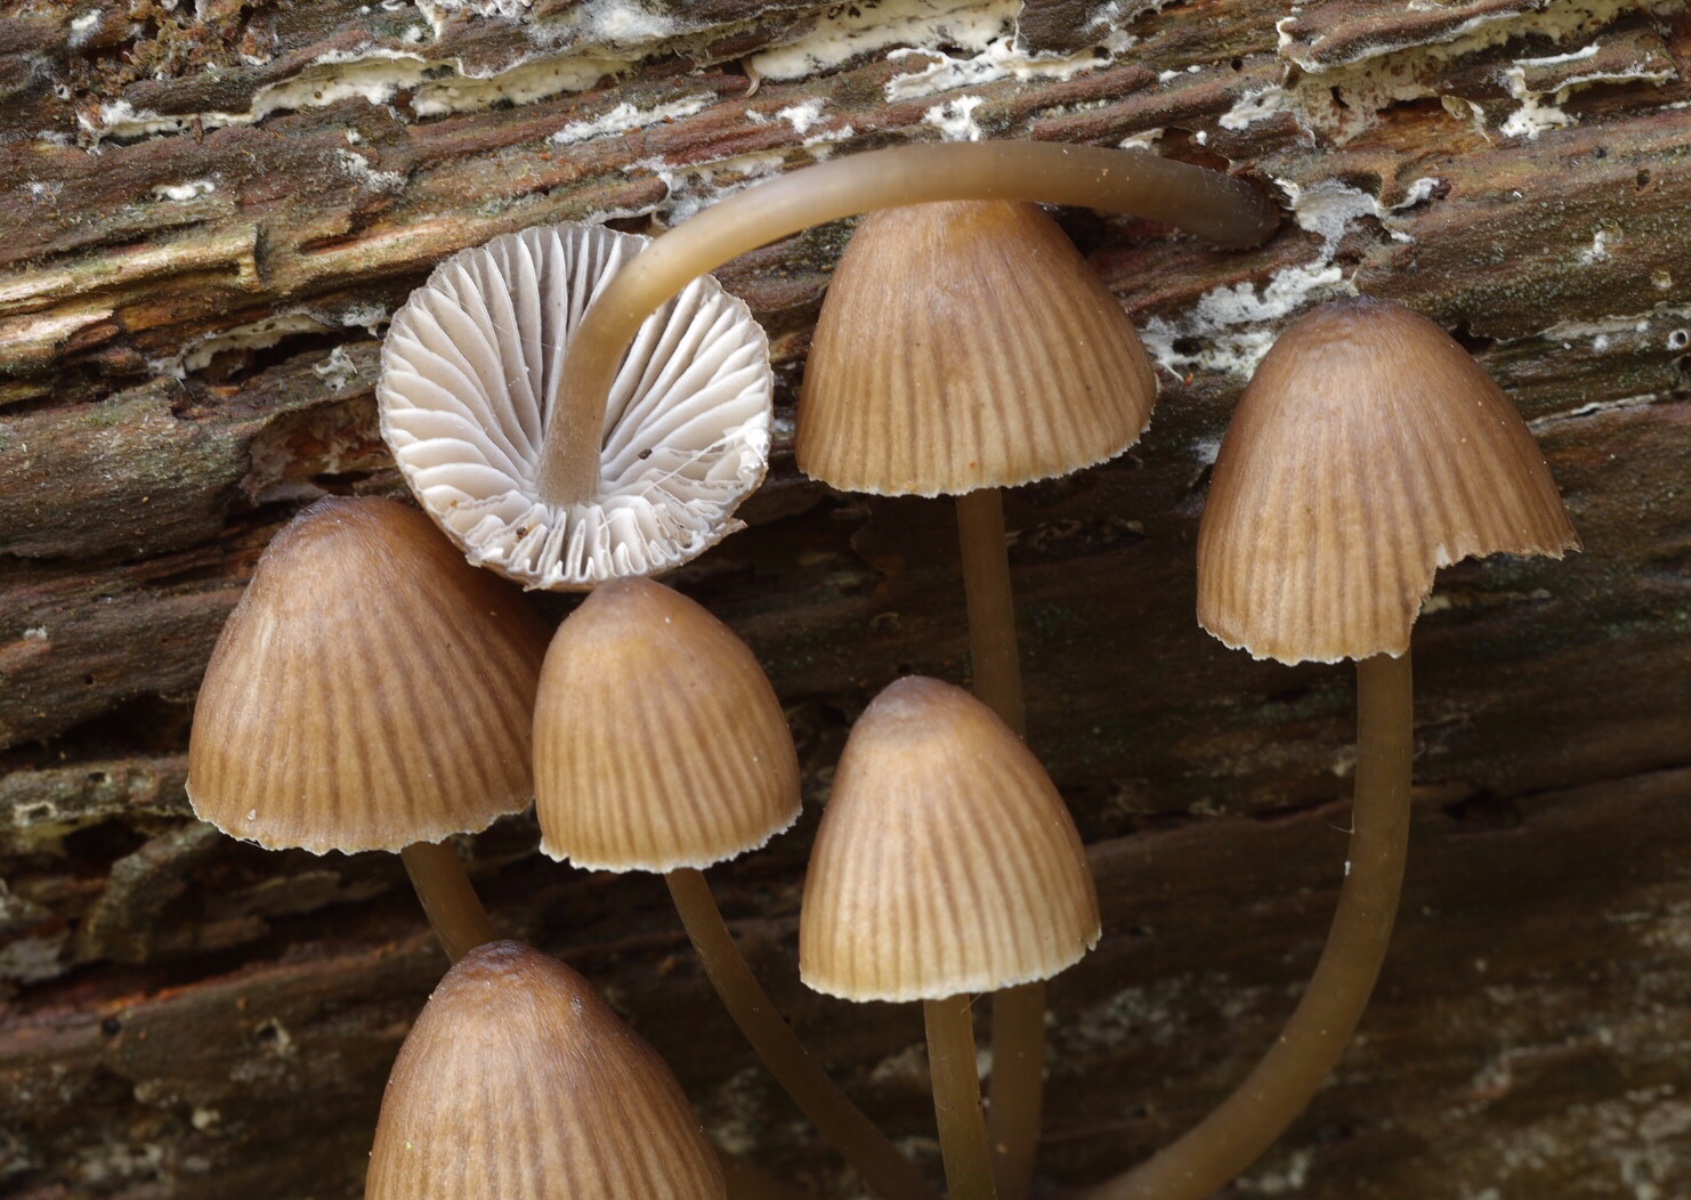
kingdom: Fungi
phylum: Basidiomycota
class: Agaricomycetes
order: Agaricales
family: Mycenaceae
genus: Mycena
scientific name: Mycena stipata
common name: stinkende huesvamp
